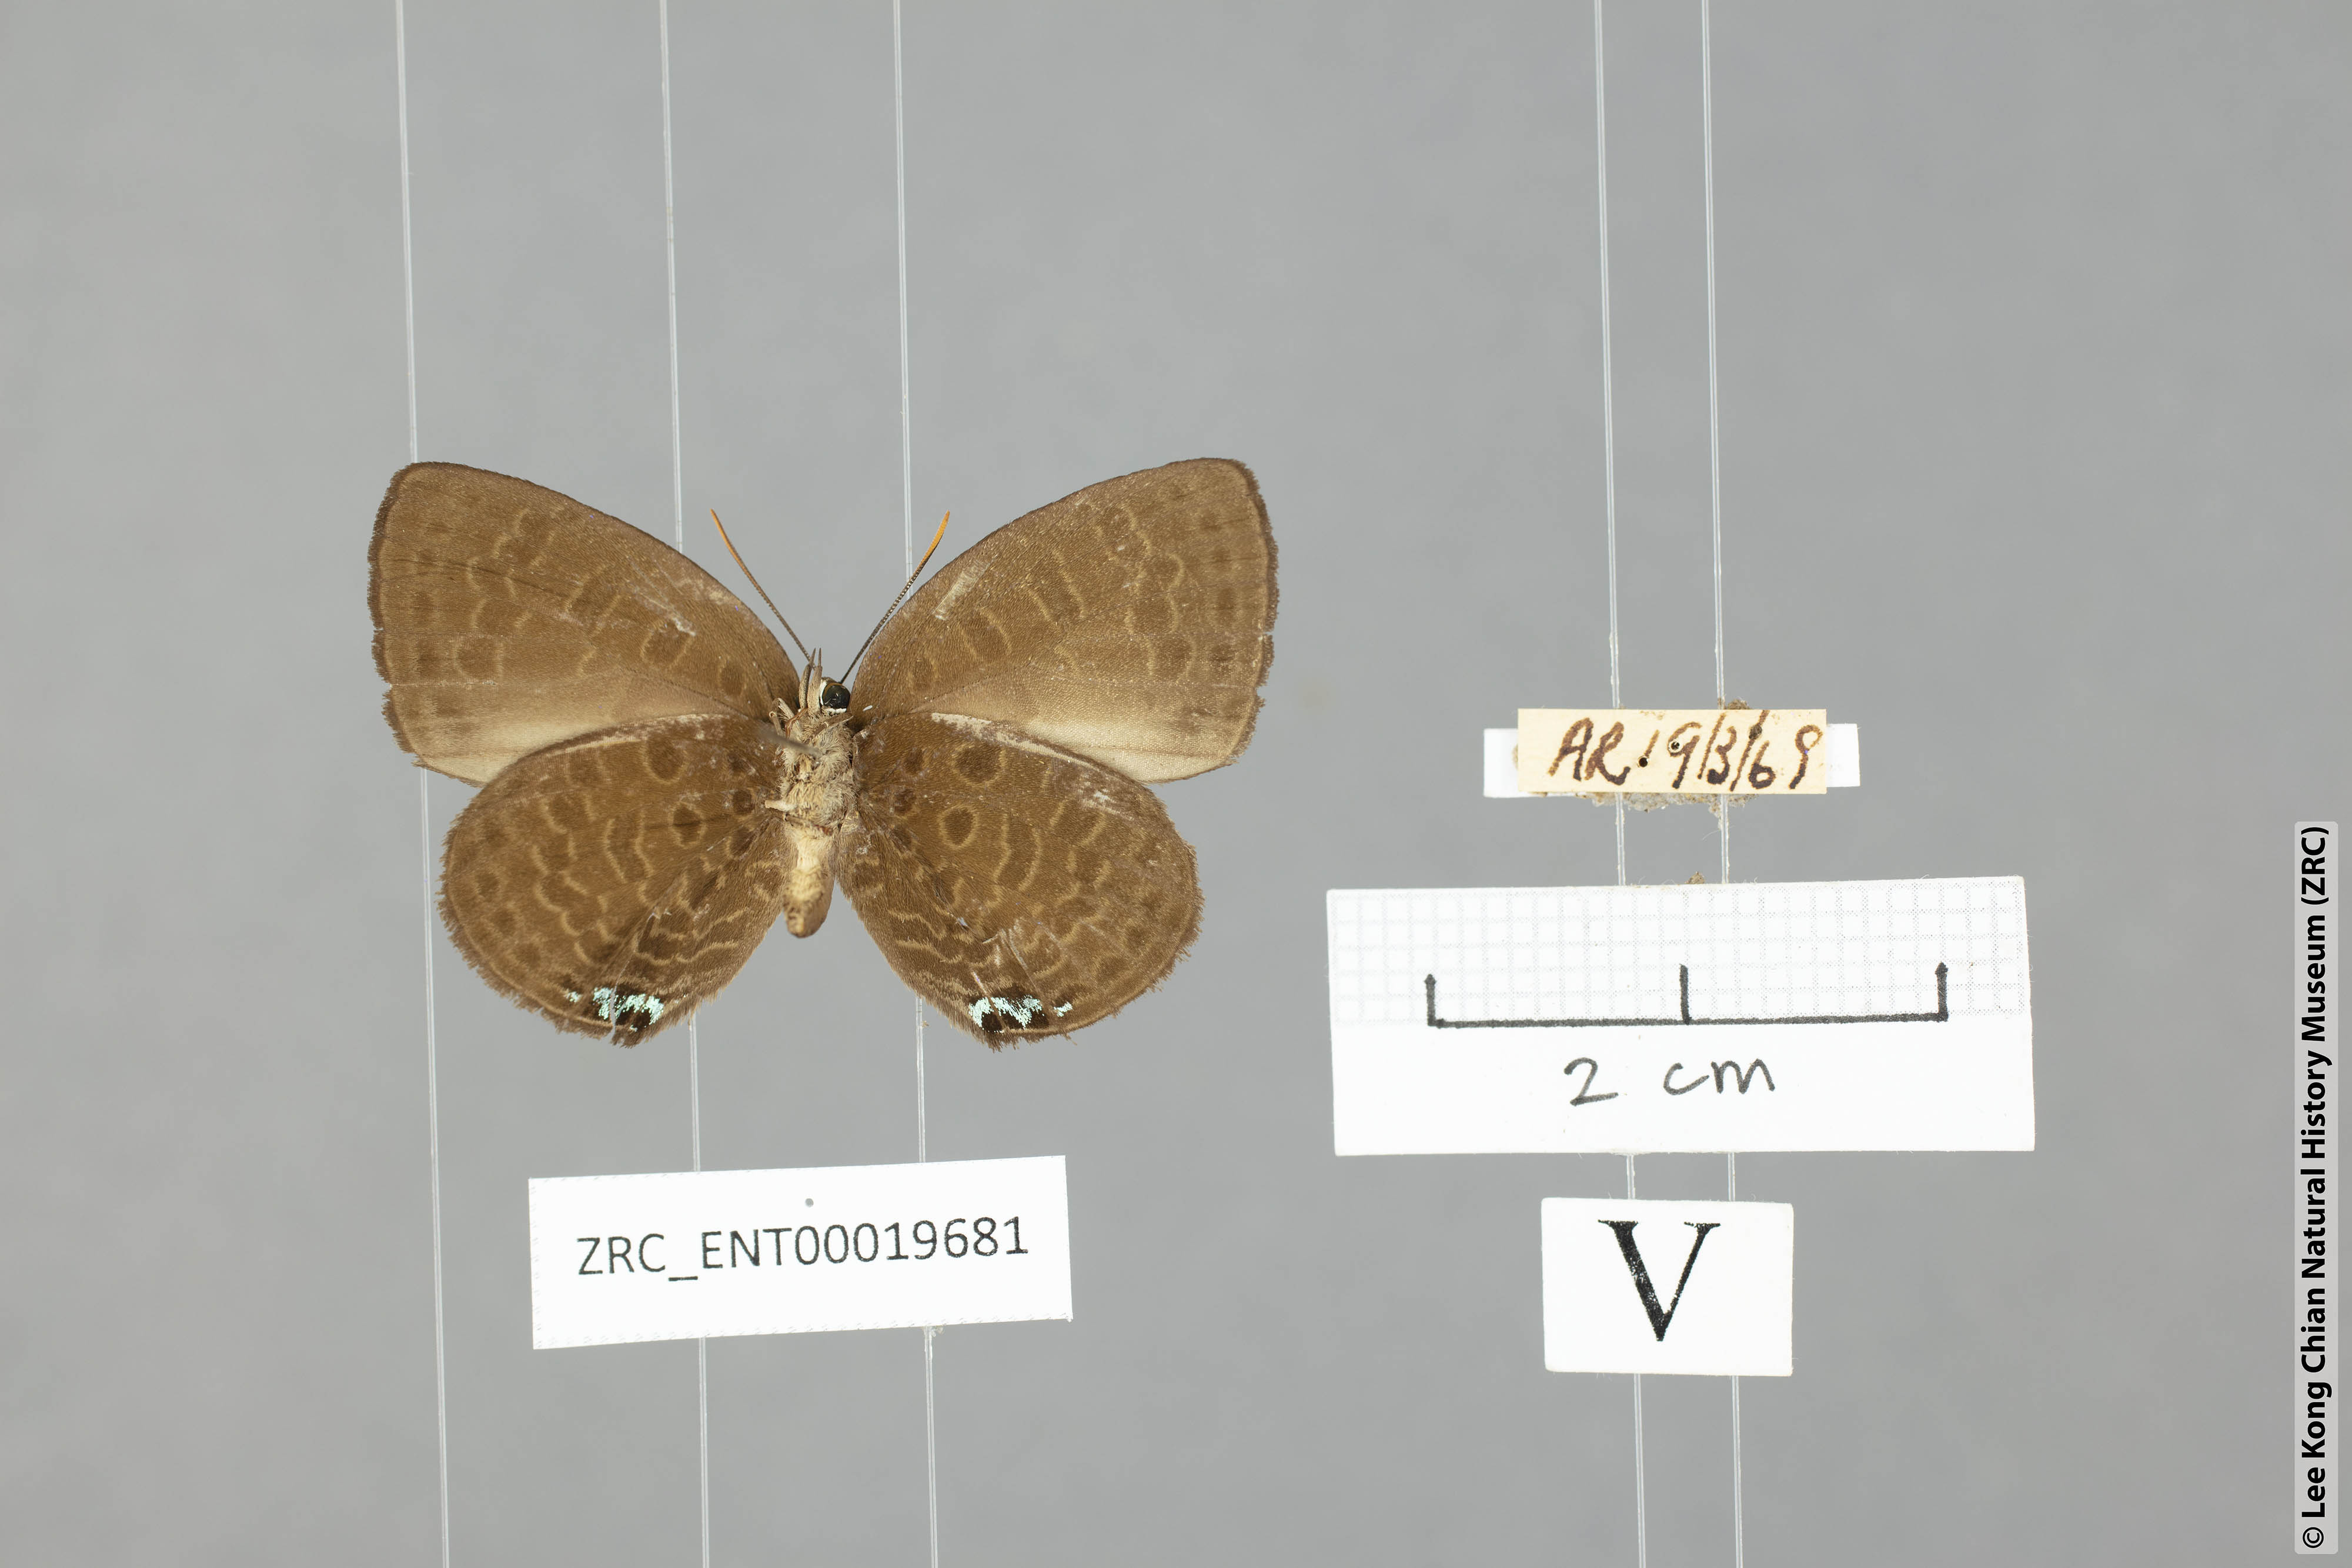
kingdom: Animalia
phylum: Arthropoda
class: Insecta
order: Lepidoptera
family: Lycaenidae
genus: Arhopala
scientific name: Arhopala moorei
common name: Moore's oakblue
